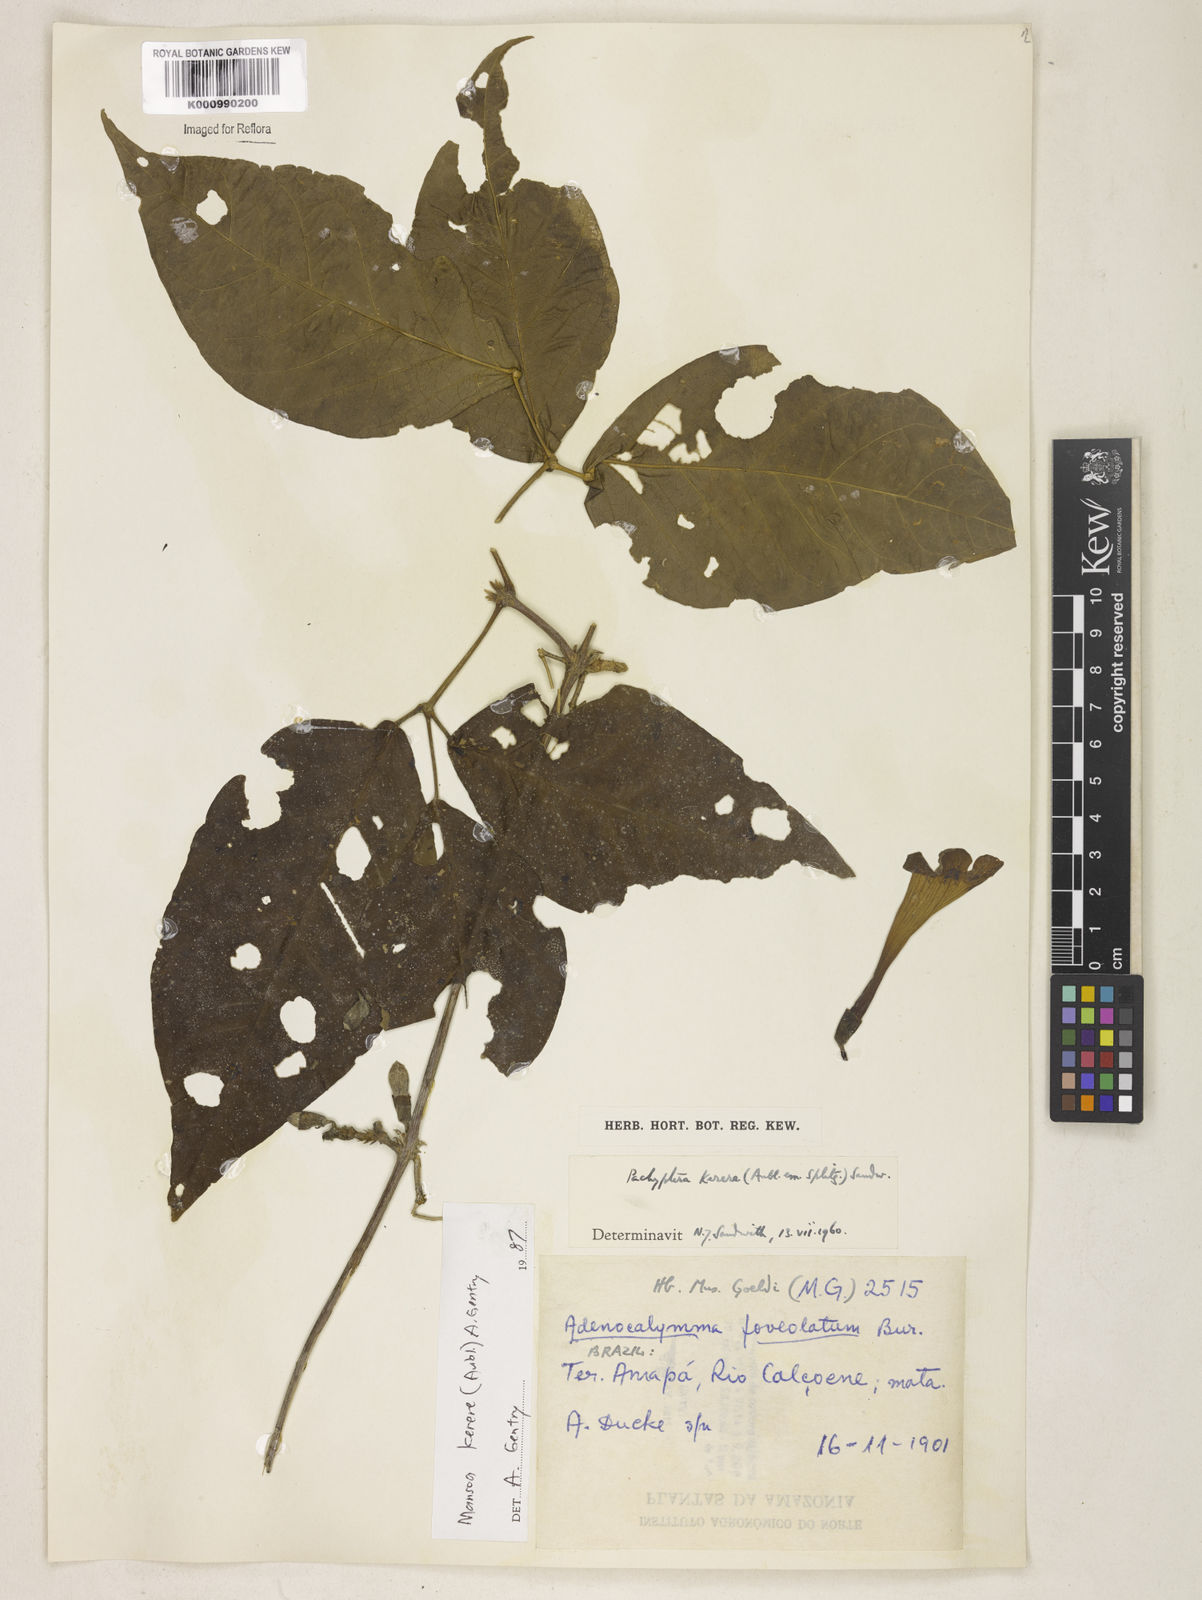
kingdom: Plantae
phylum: Tracheophyta
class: Magnoliopsida
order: Lamiales
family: Bignoniaceae
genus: Pachyptera
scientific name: Pachyptera kerere
